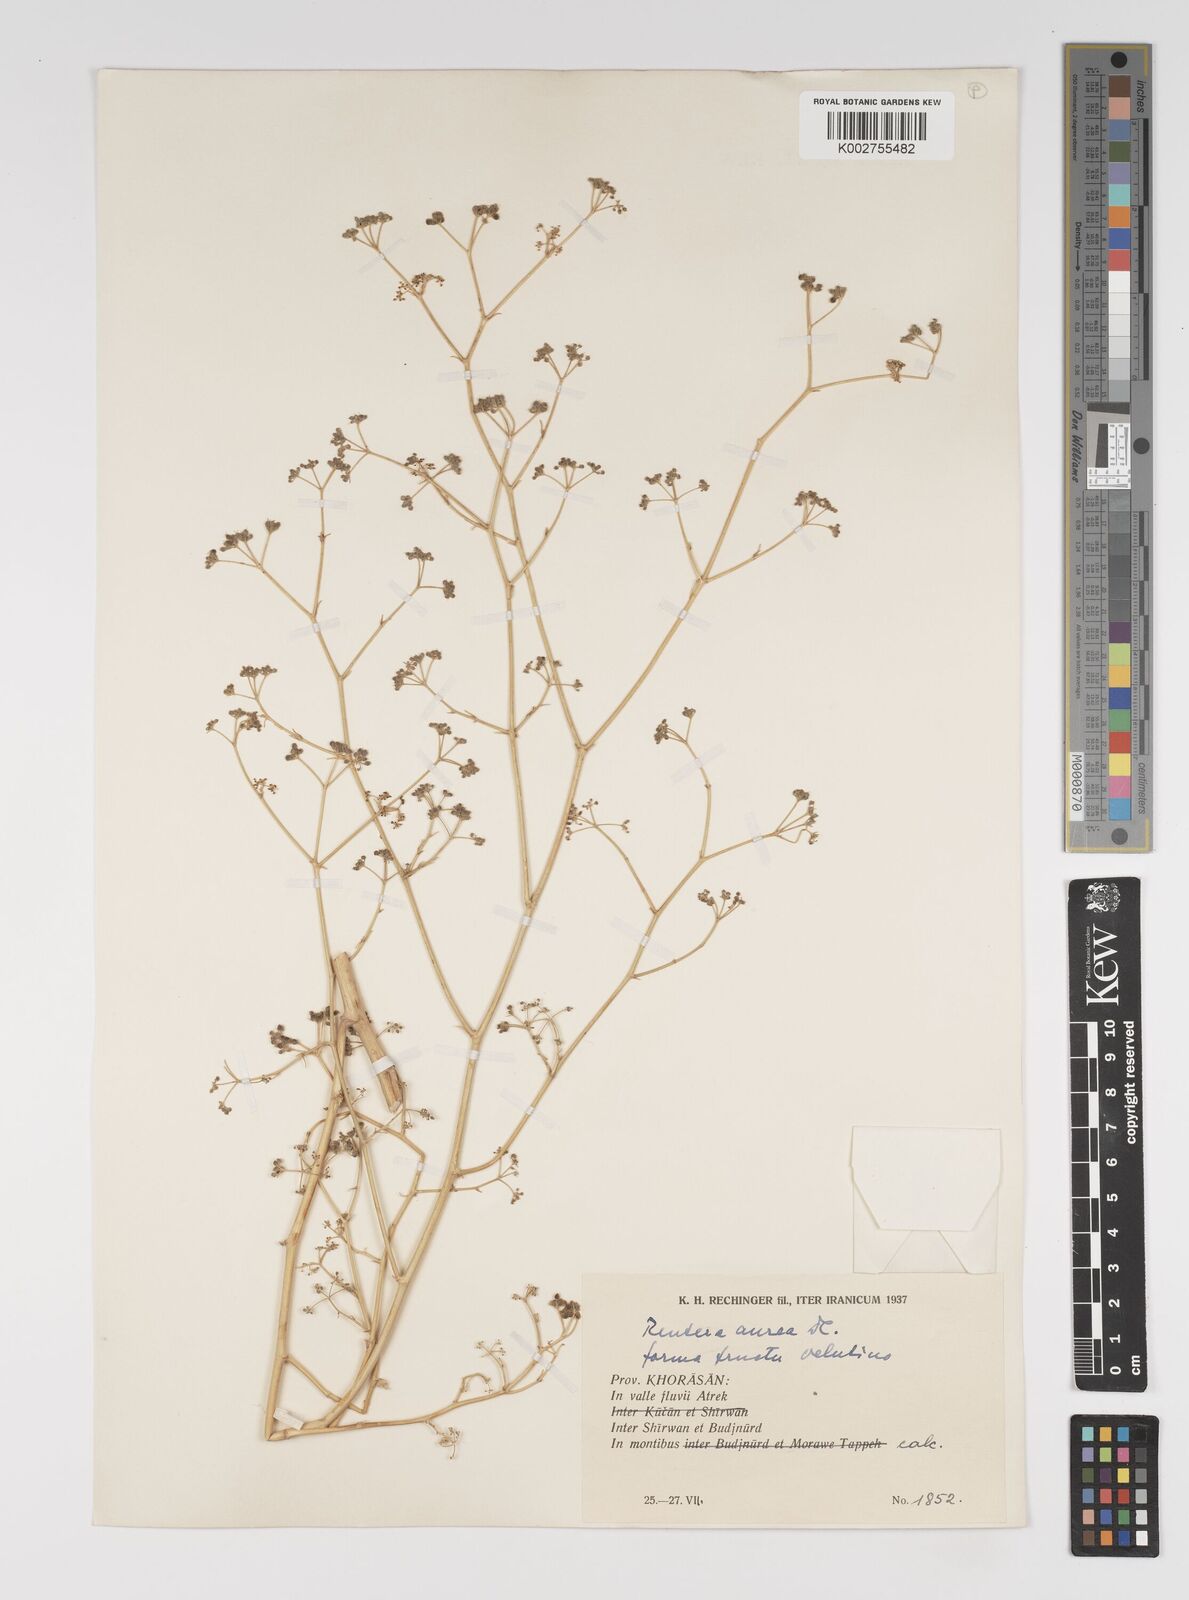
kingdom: Plantae
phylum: Tracheophyta
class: Magnoliopsida
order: Apiales
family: Apiaceae
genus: Pimpinella
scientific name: Pimpinella aurea
